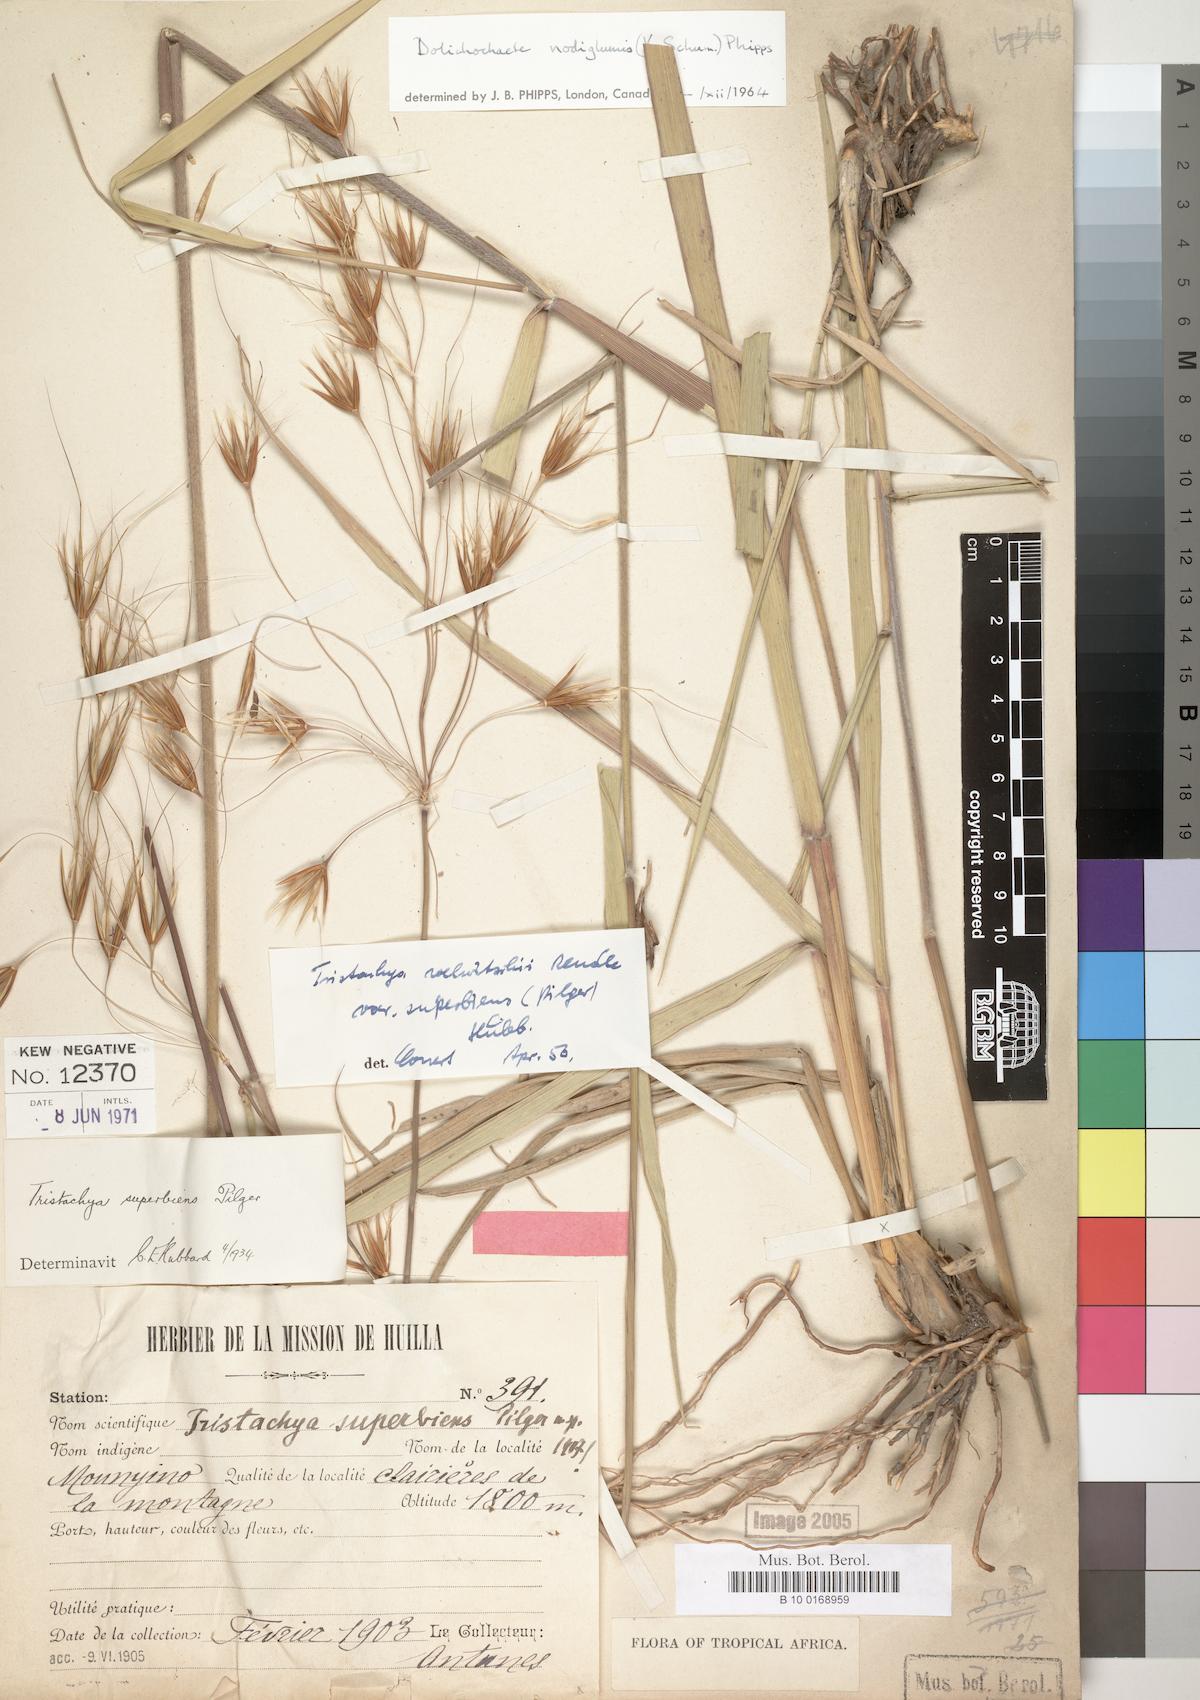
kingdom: Plantae
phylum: Tracheophyta
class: Liliopsida
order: Poales
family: Poaceae
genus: Tristachya
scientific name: Tristachya nodiglumis
